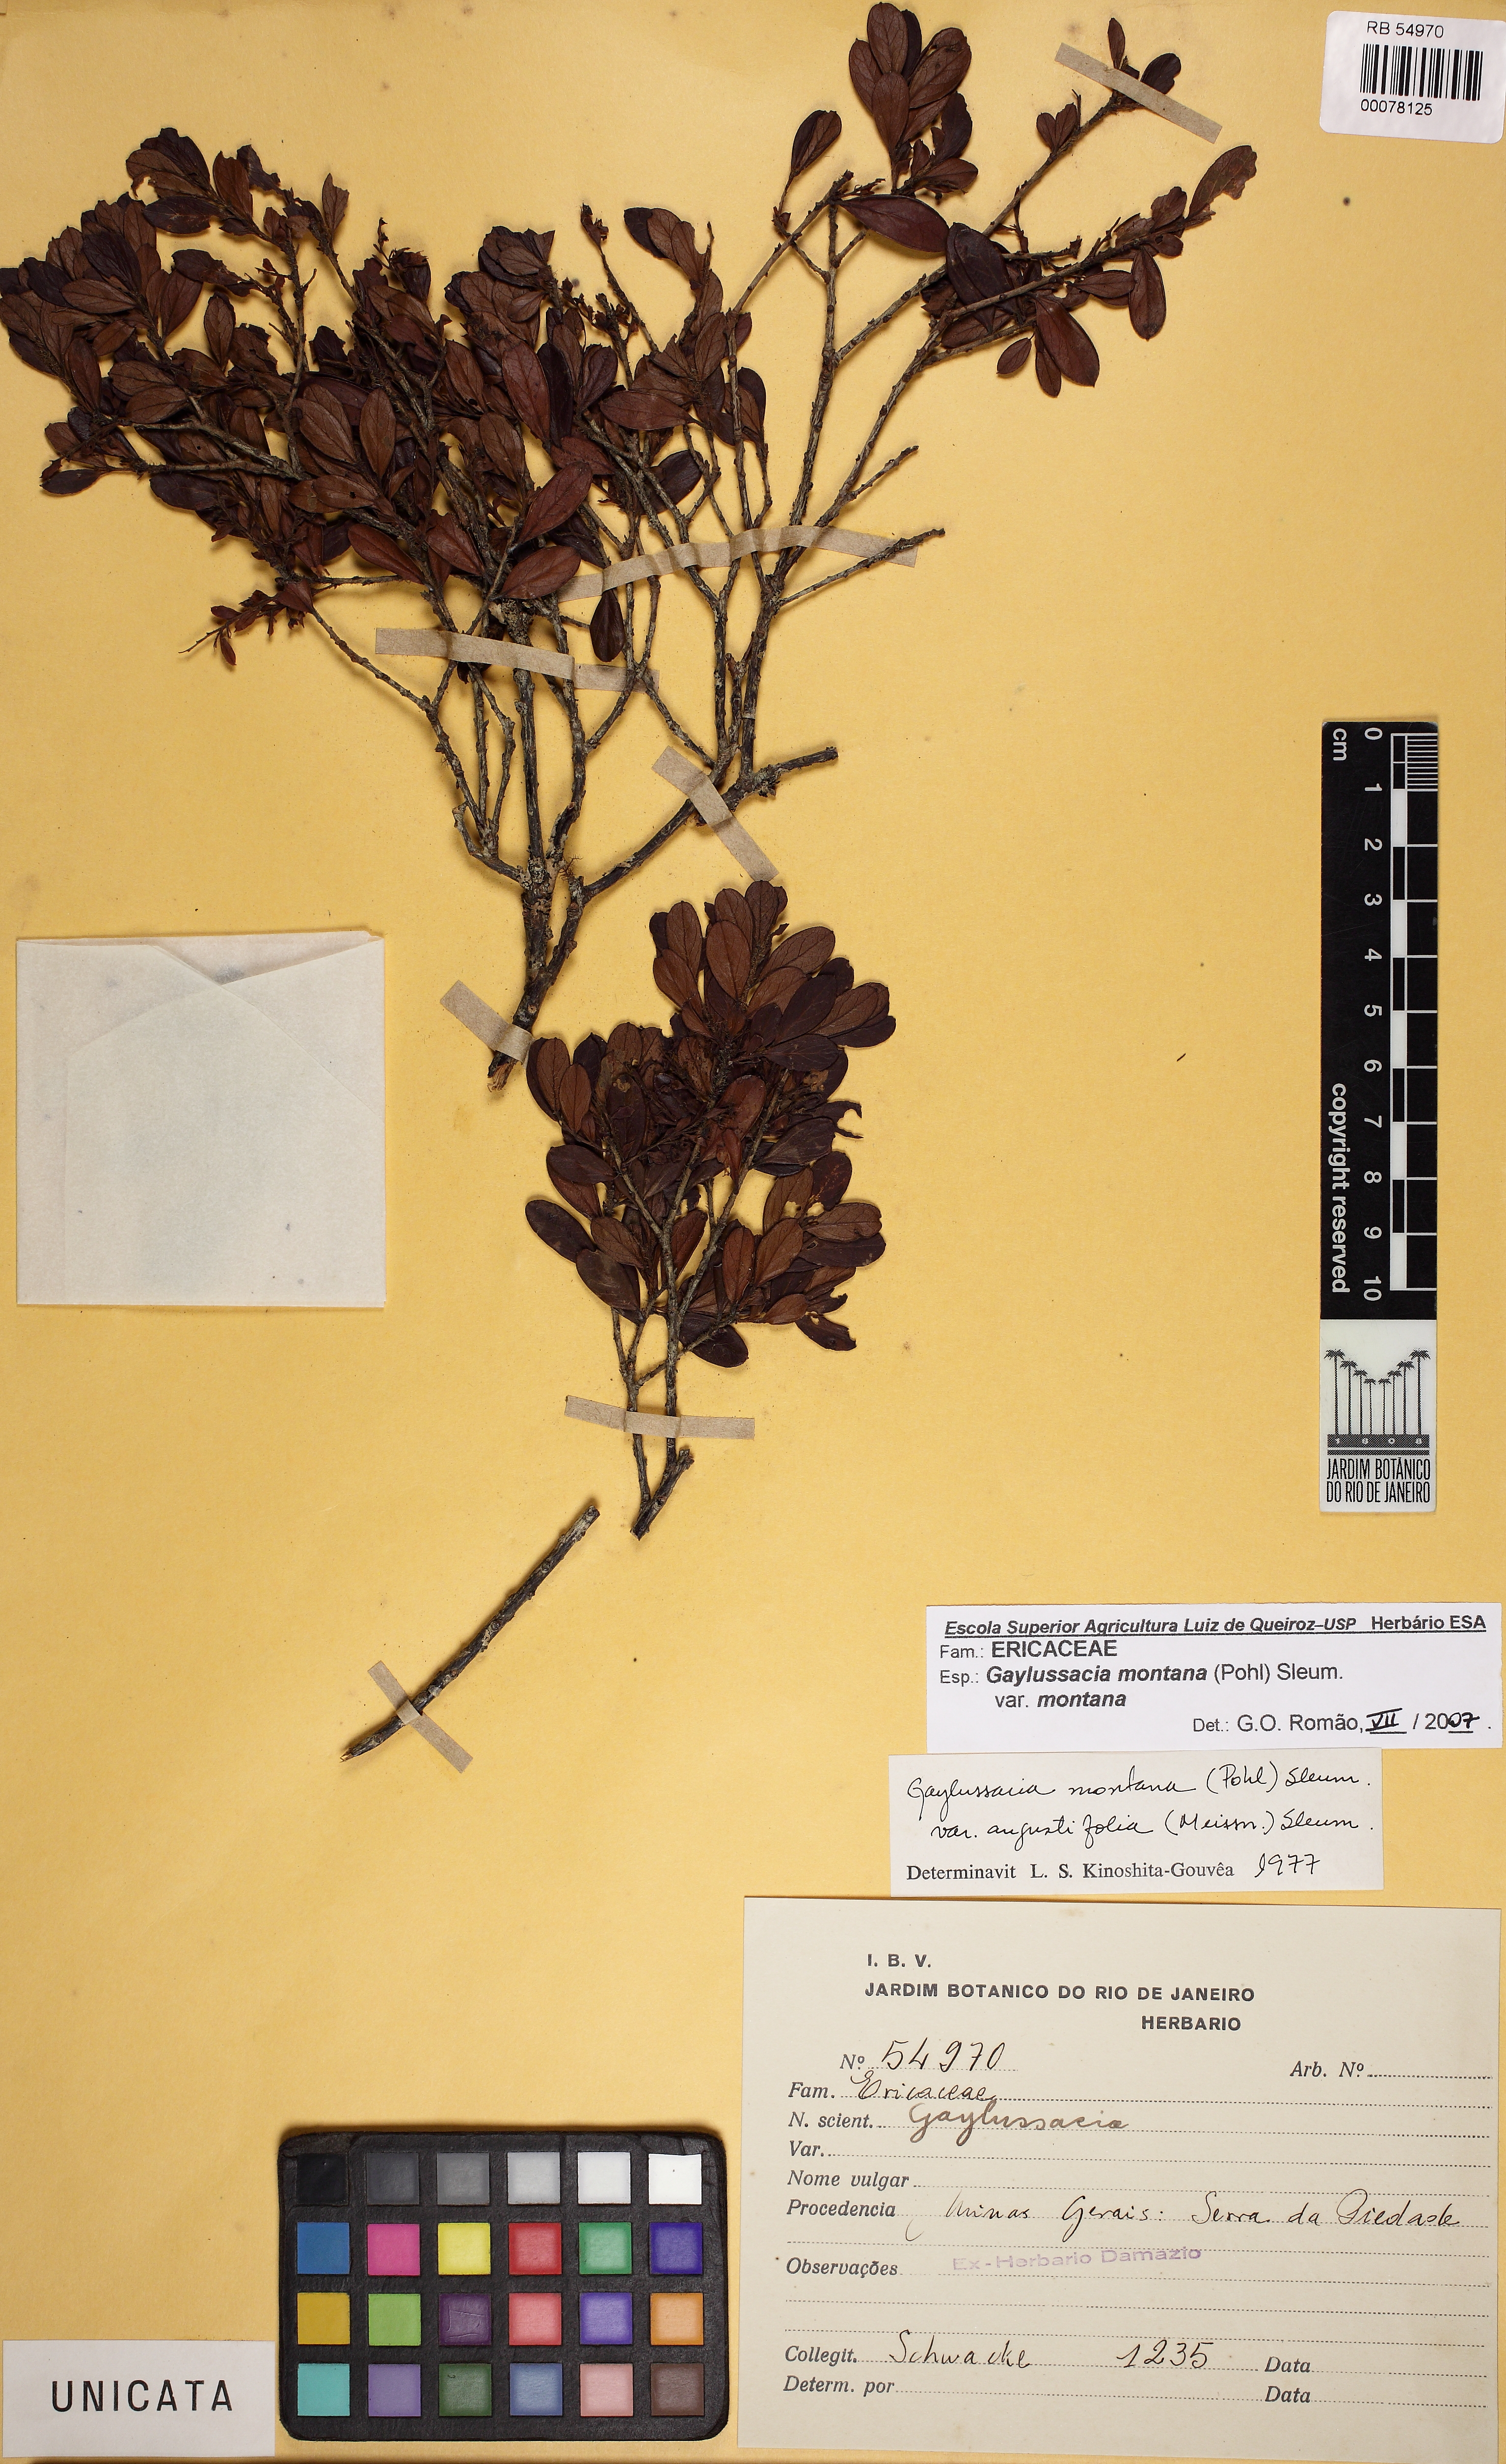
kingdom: Plantae
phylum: Tracheophyta
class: Magnoliopsida
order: Ericales
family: Ericaceae
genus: Gaylussacia
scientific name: Gaylussacia montana
